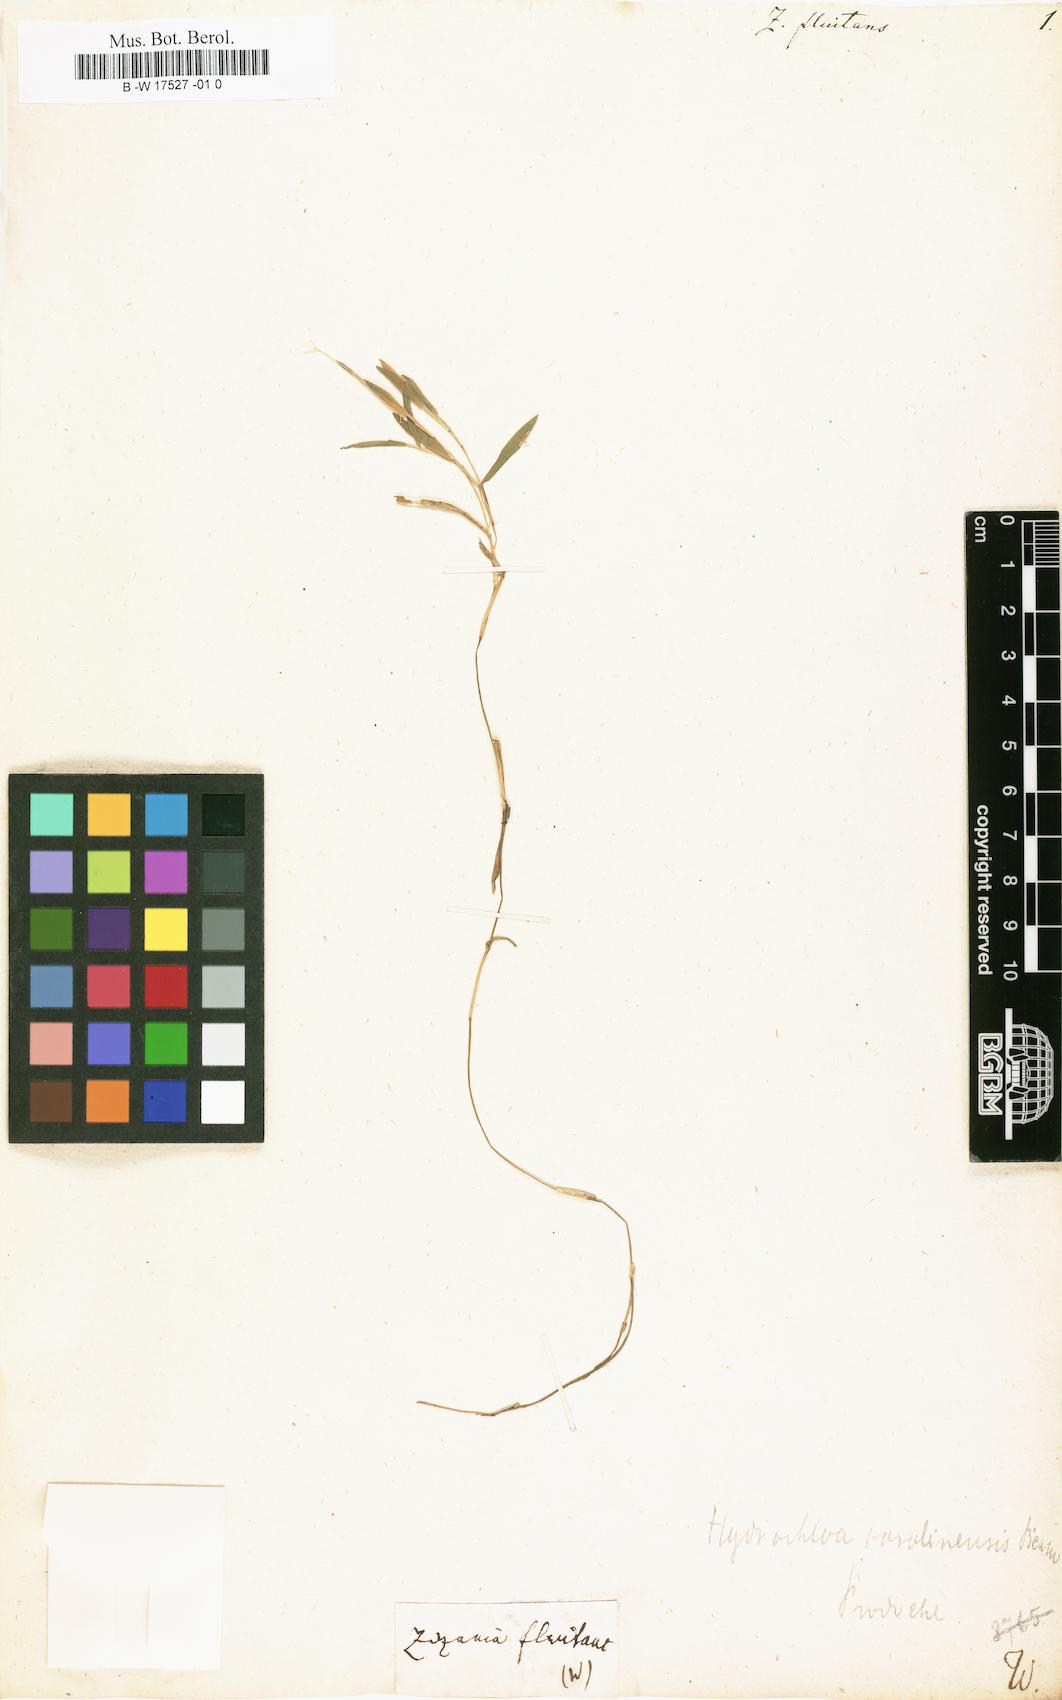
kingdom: Plantae
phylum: Tracheophyta
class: Liliopsida
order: Poales
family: Poaceae
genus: Luziola
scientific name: Luziola fluitans
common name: Silverleaf grass
